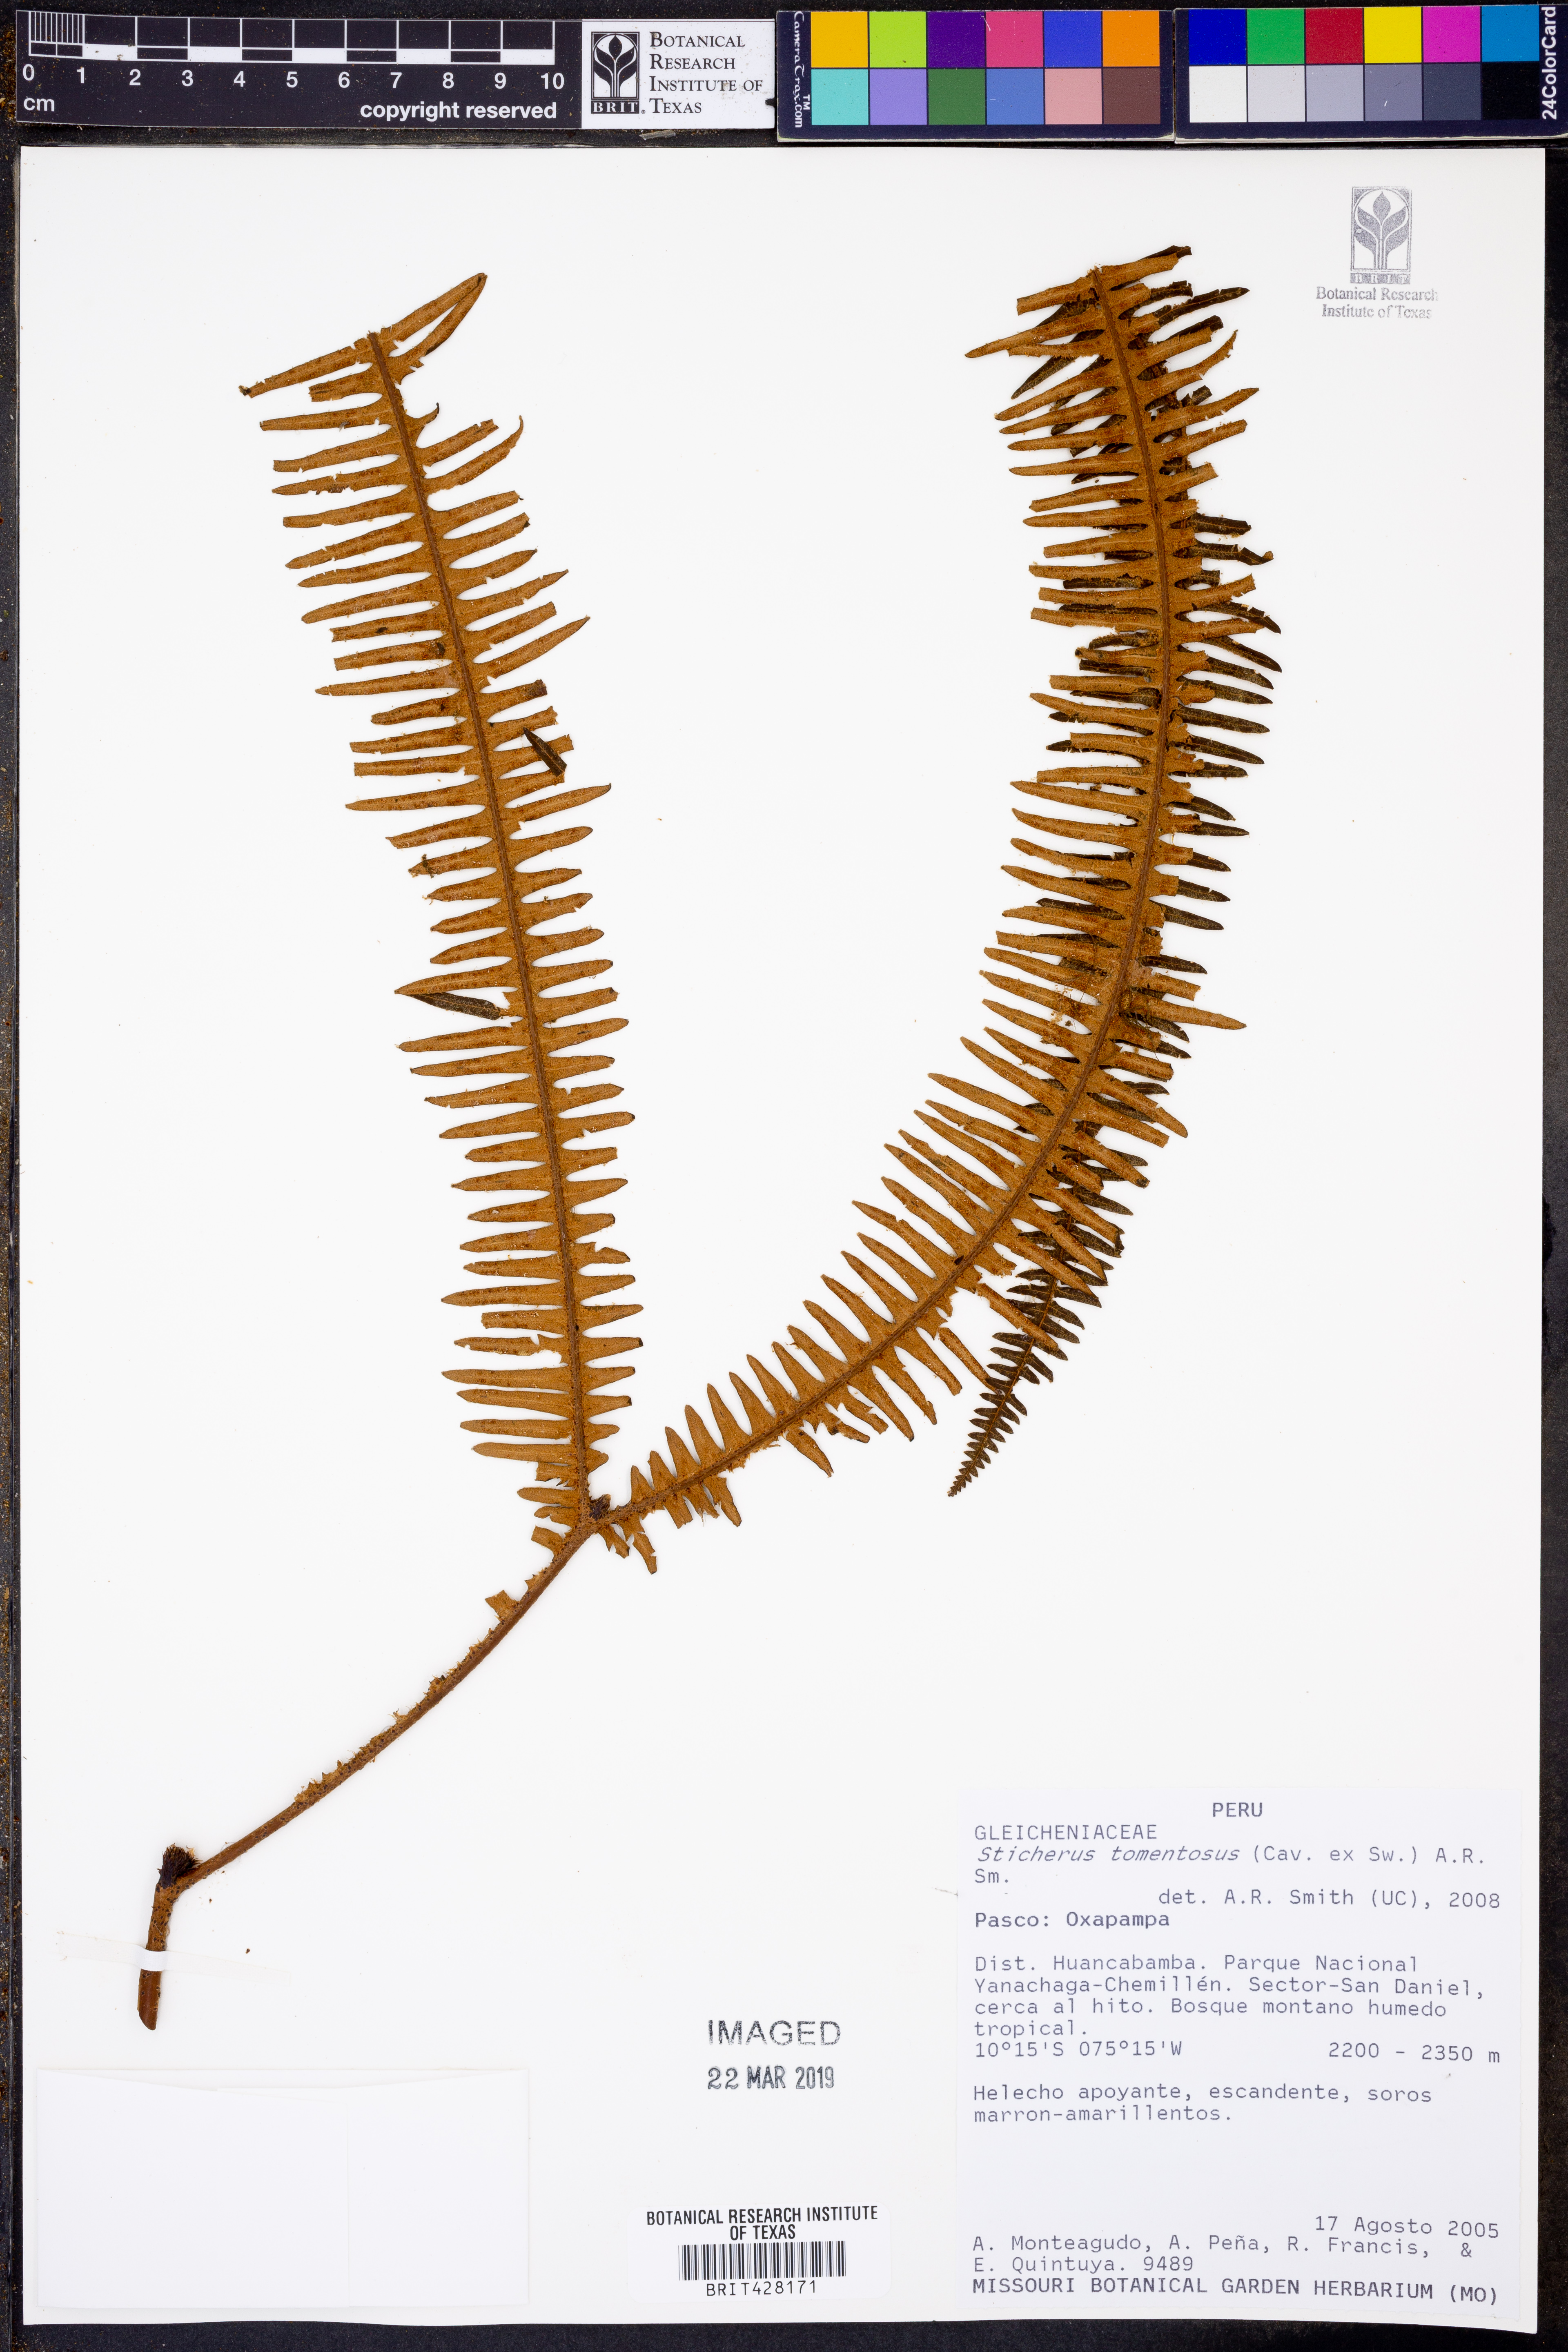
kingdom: Plantae
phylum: Tracheophyta
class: Polypodiopsida
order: Gleicheniales
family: Gleicheniaceae
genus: Sticherus
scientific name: Sticherus tomentosus
